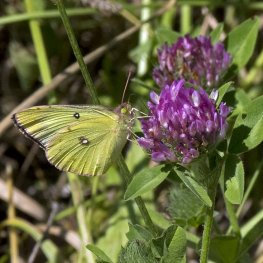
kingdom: Animalia
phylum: Arthropoda
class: Insecta
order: Lepidoptera
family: Pieridae
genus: Colias
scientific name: Colias philodice
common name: Clouded Sulphur
